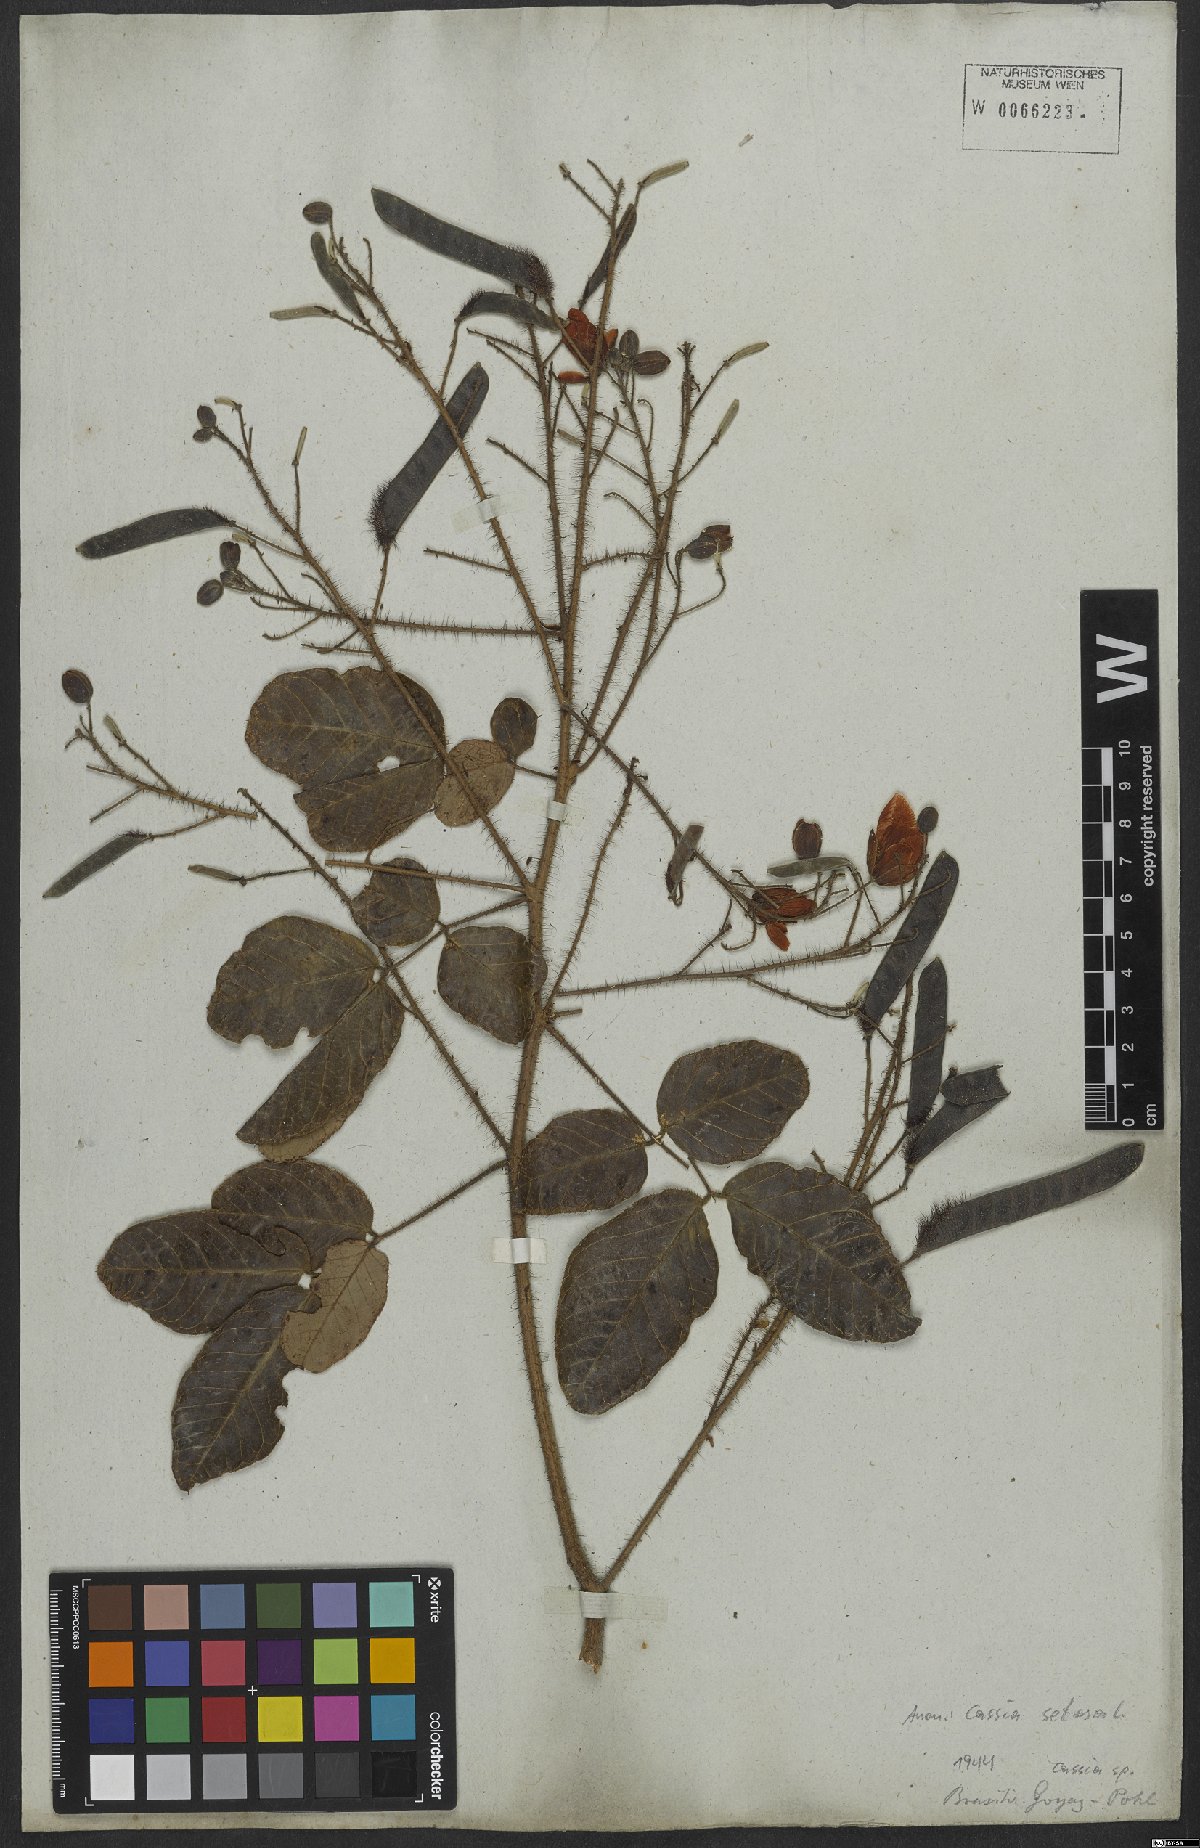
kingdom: Plantae
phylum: Tracheophyta
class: Magnoliopsida
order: Fabales
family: Fabaceae
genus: Chamaecrista
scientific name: Chamaecrista setosa
